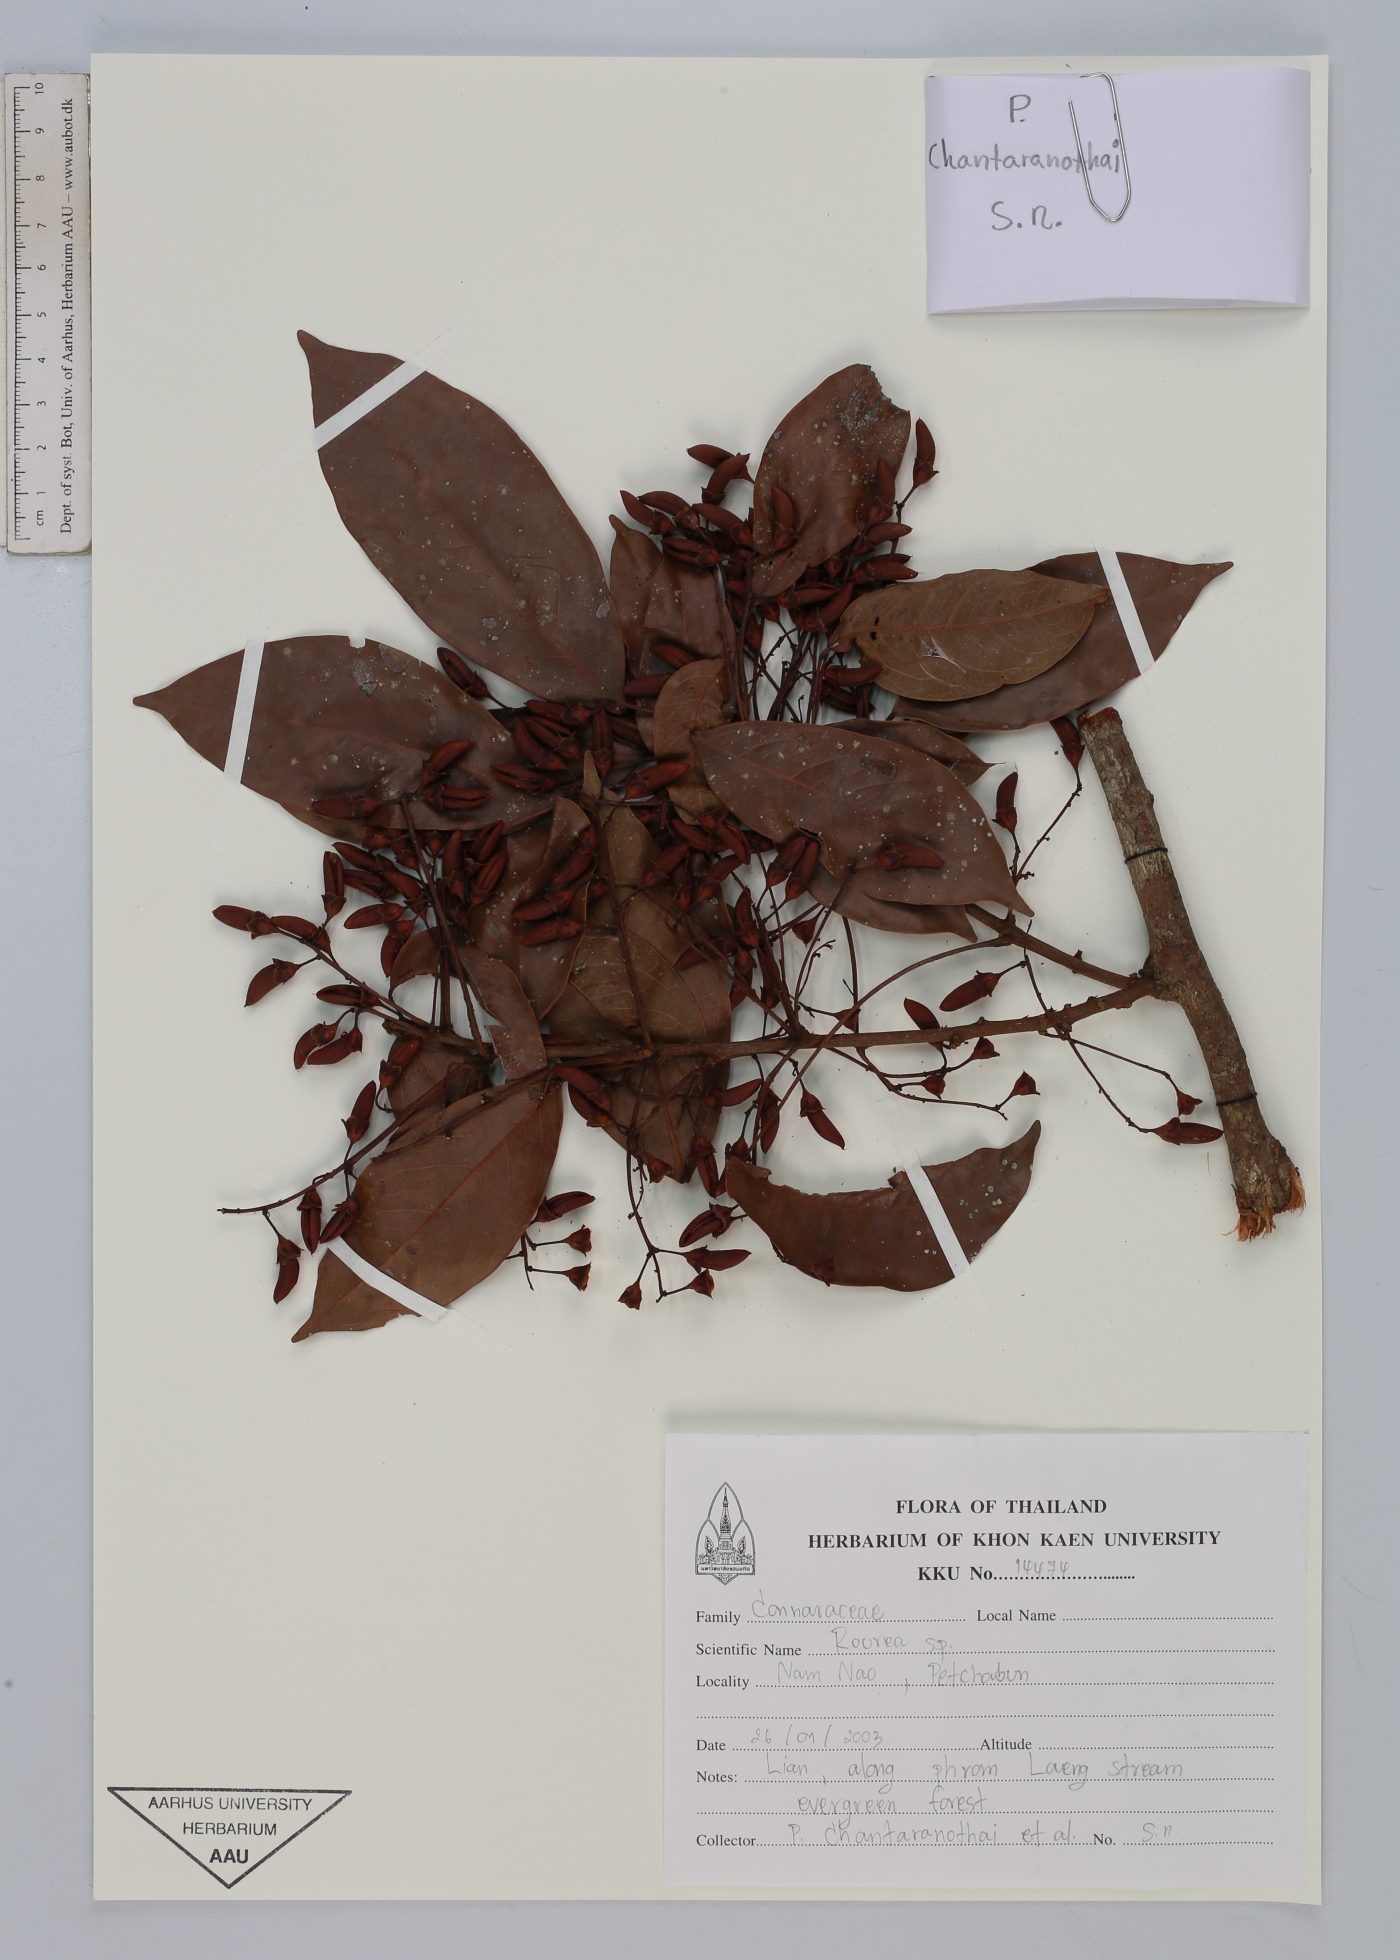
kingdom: Plantae
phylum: Tracheophyta
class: Magnoliopsida
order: Oxalidales
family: Connaraceae
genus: Rourea
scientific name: Rourea
